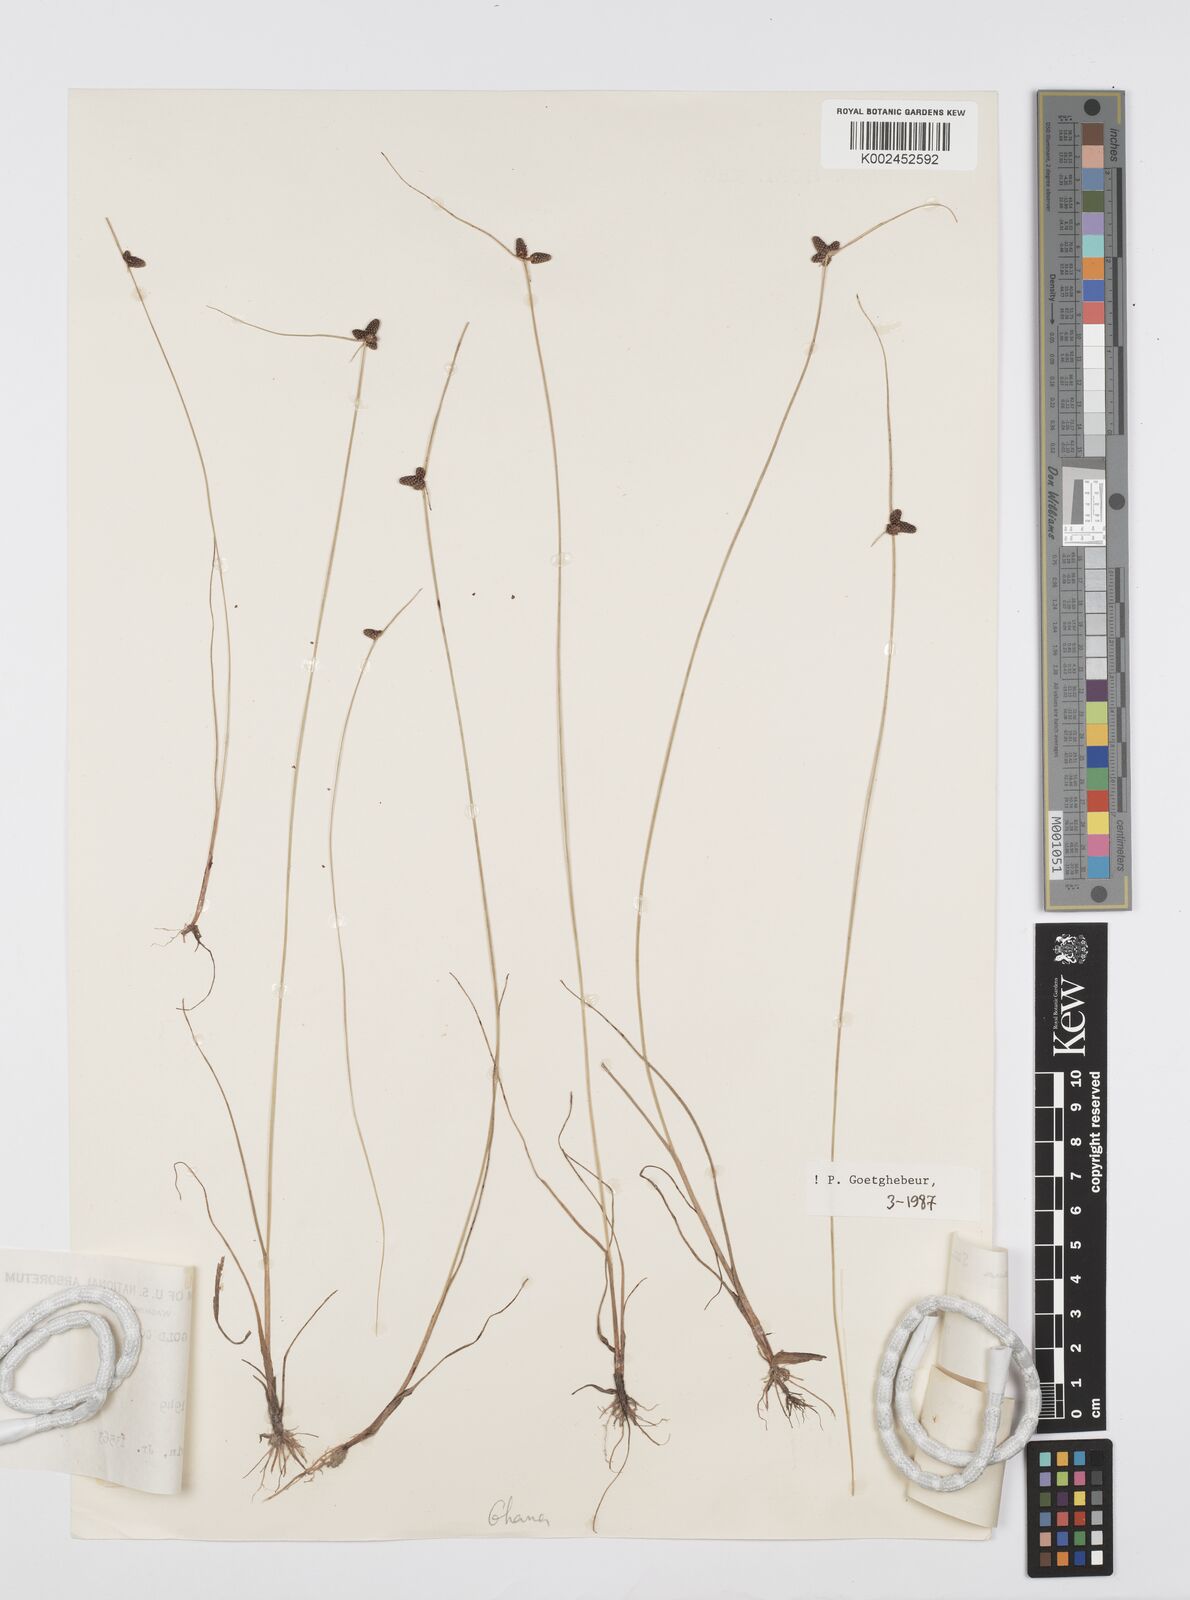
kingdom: Plantae
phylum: Tracheophyta
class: Liliopsida
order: Poales
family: Cyperaceae
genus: Cyperus
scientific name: Cyperus prieurianus
